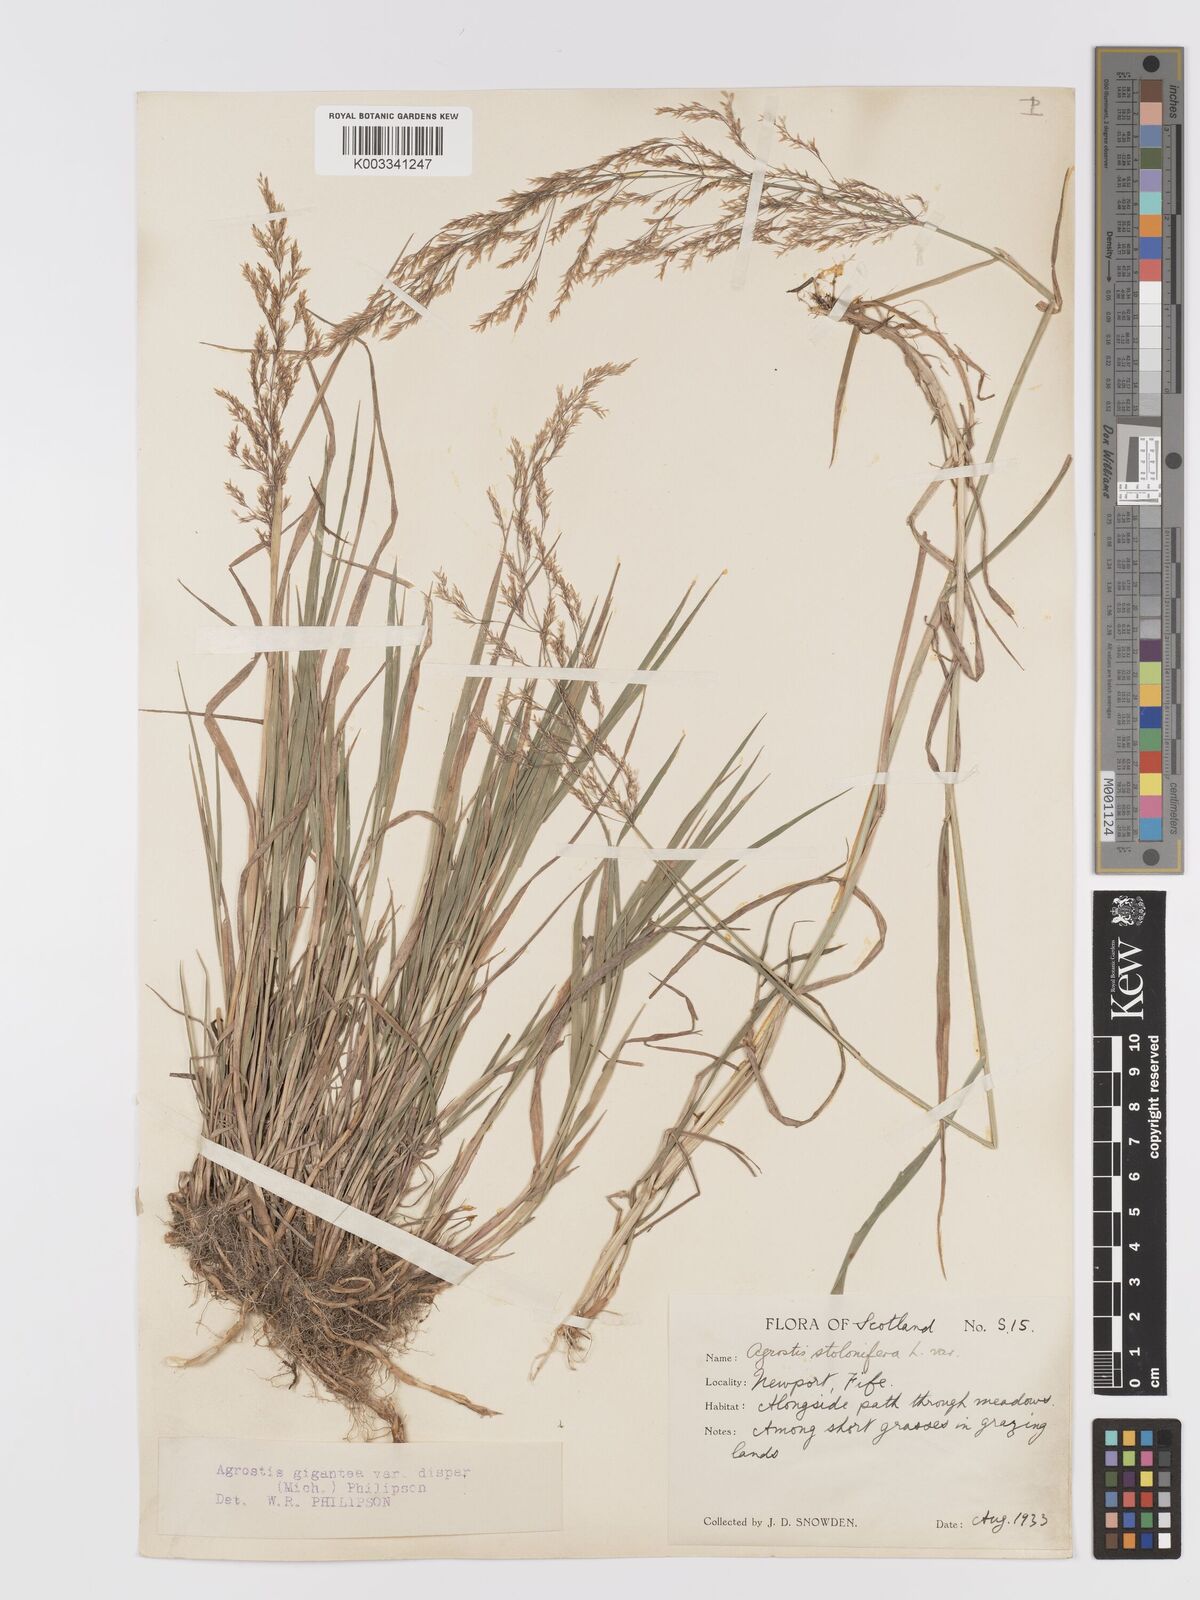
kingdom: Plantae
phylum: Tracheophyta
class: Liliopsida
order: Poales
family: Poaceae
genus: Agrostis
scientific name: Agrostis gigantea
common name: Black bent
